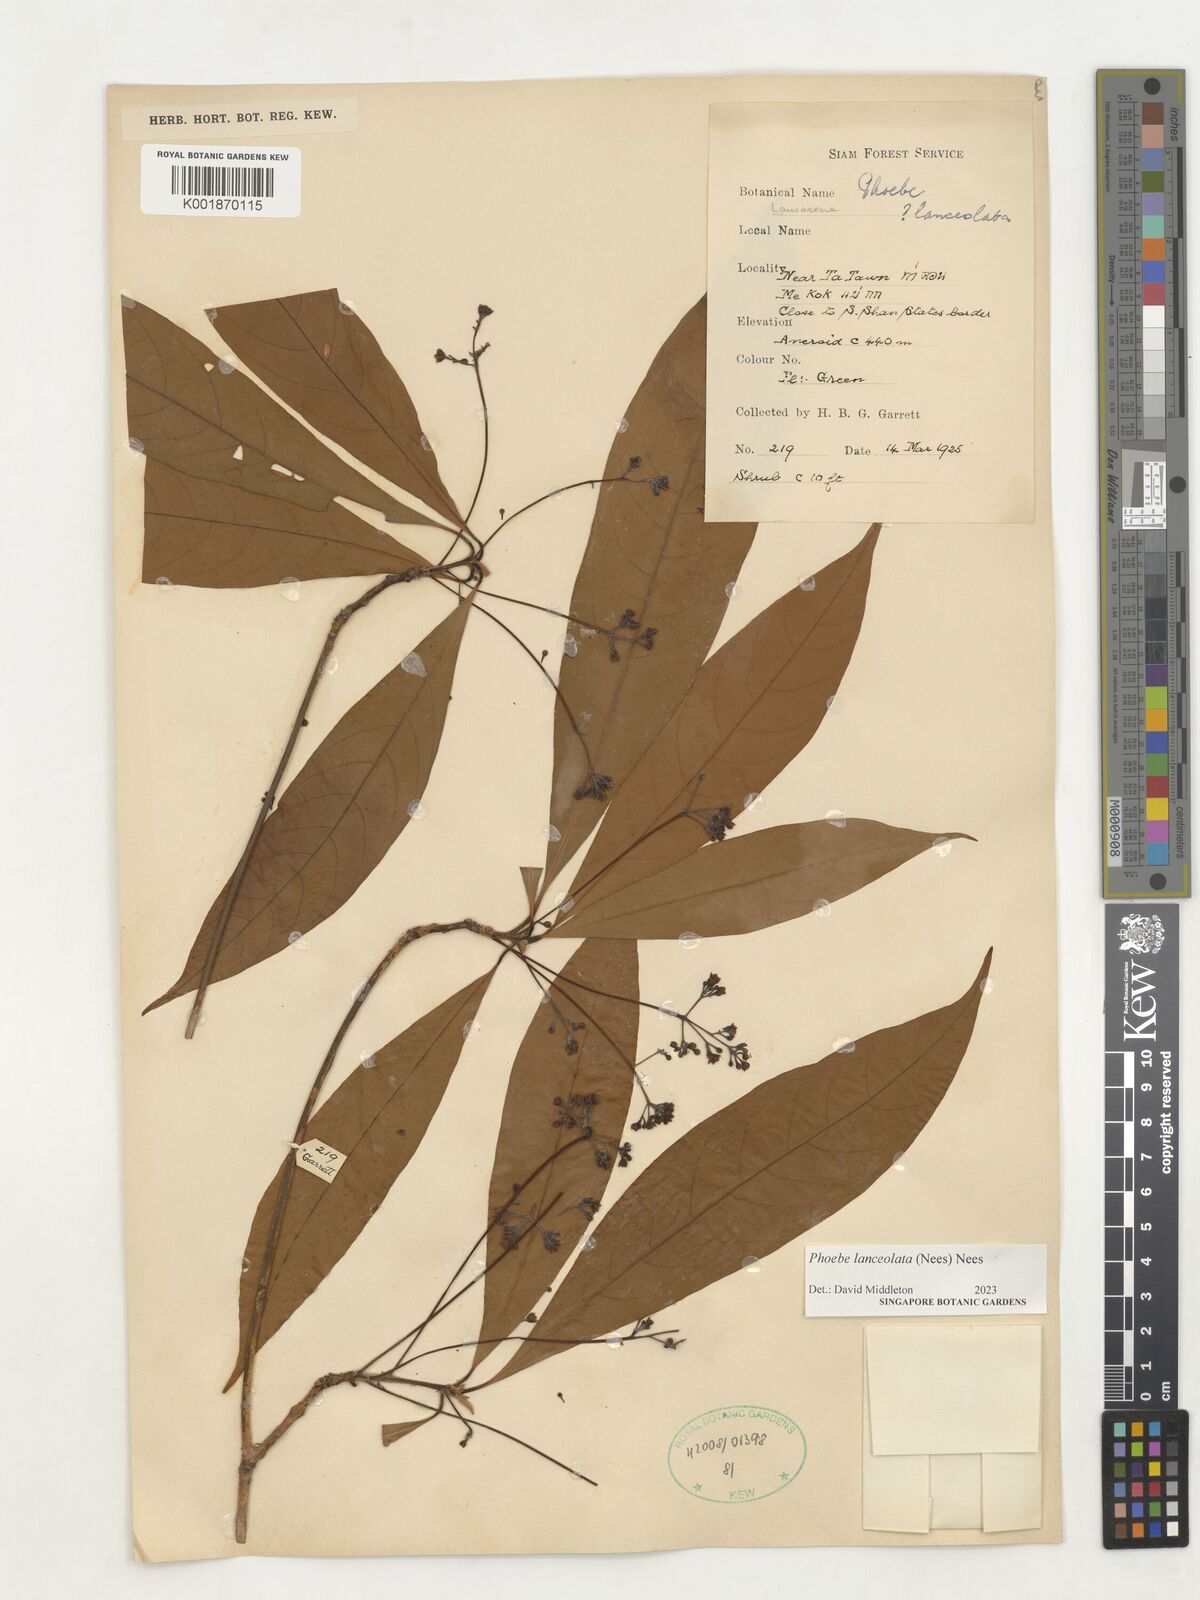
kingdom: Plantae
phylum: Tracheophyta
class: Magnoliopsida
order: Laurales
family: Lauraceae
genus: Phoebe
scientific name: Phoebe lanceolata
